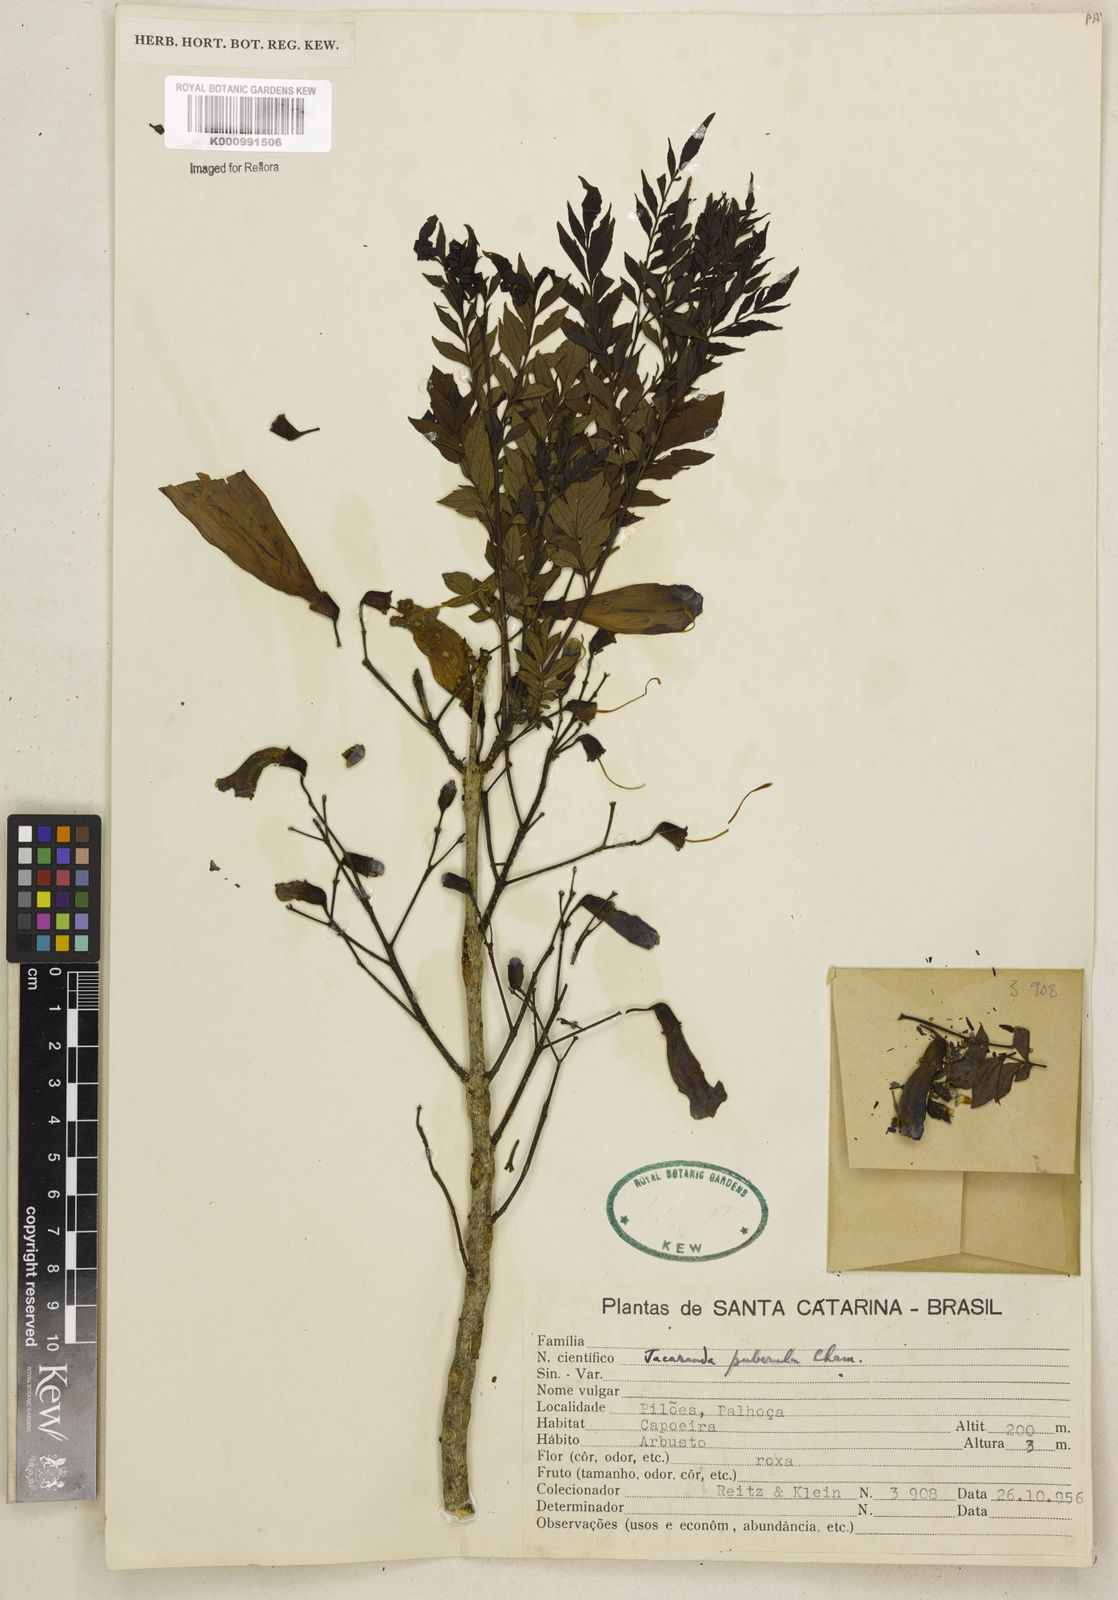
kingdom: Plantae
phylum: Tracheophyta
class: Magnoliopsida
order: Lamiales
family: Bignoniaceae
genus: Jacaranda
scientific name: Jacaranda puberula
